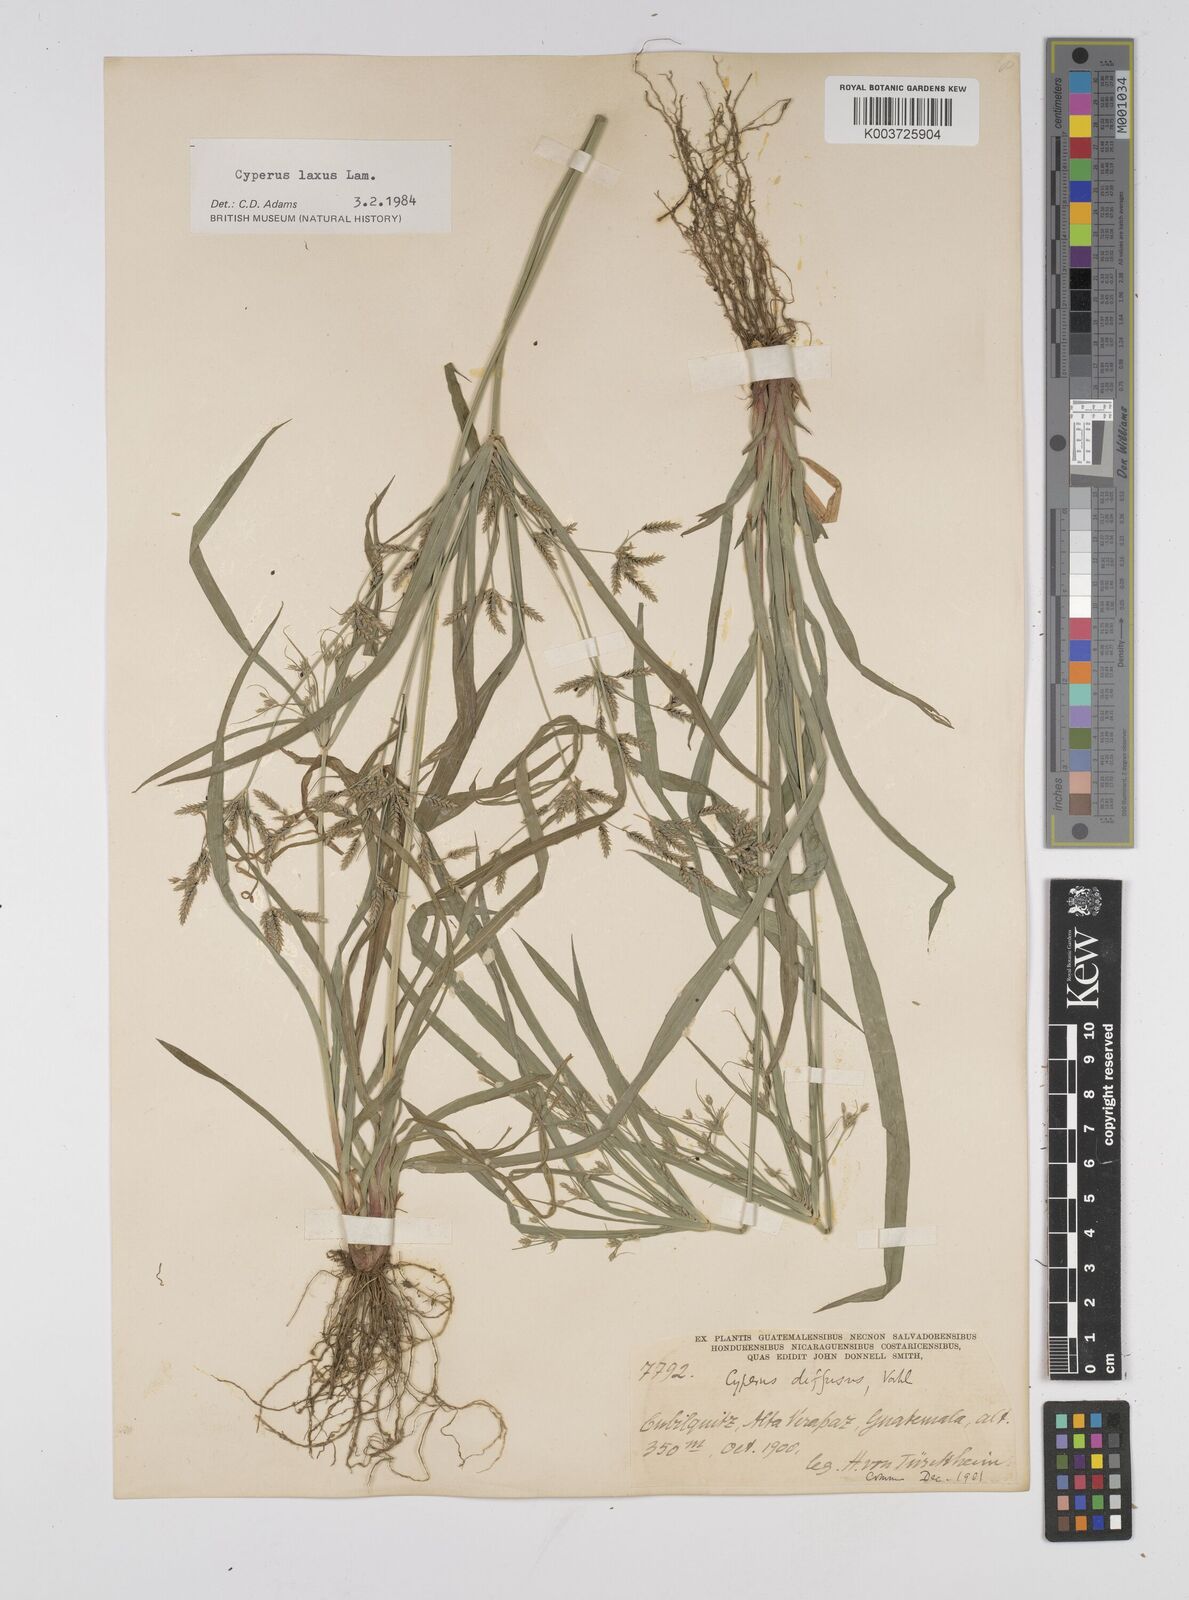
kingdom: Plantae
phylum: Tracheophyta
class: Liliopsida
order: Poales
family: Cyperaceae
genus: Cyperus
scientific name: Cyperus chalaranthus
